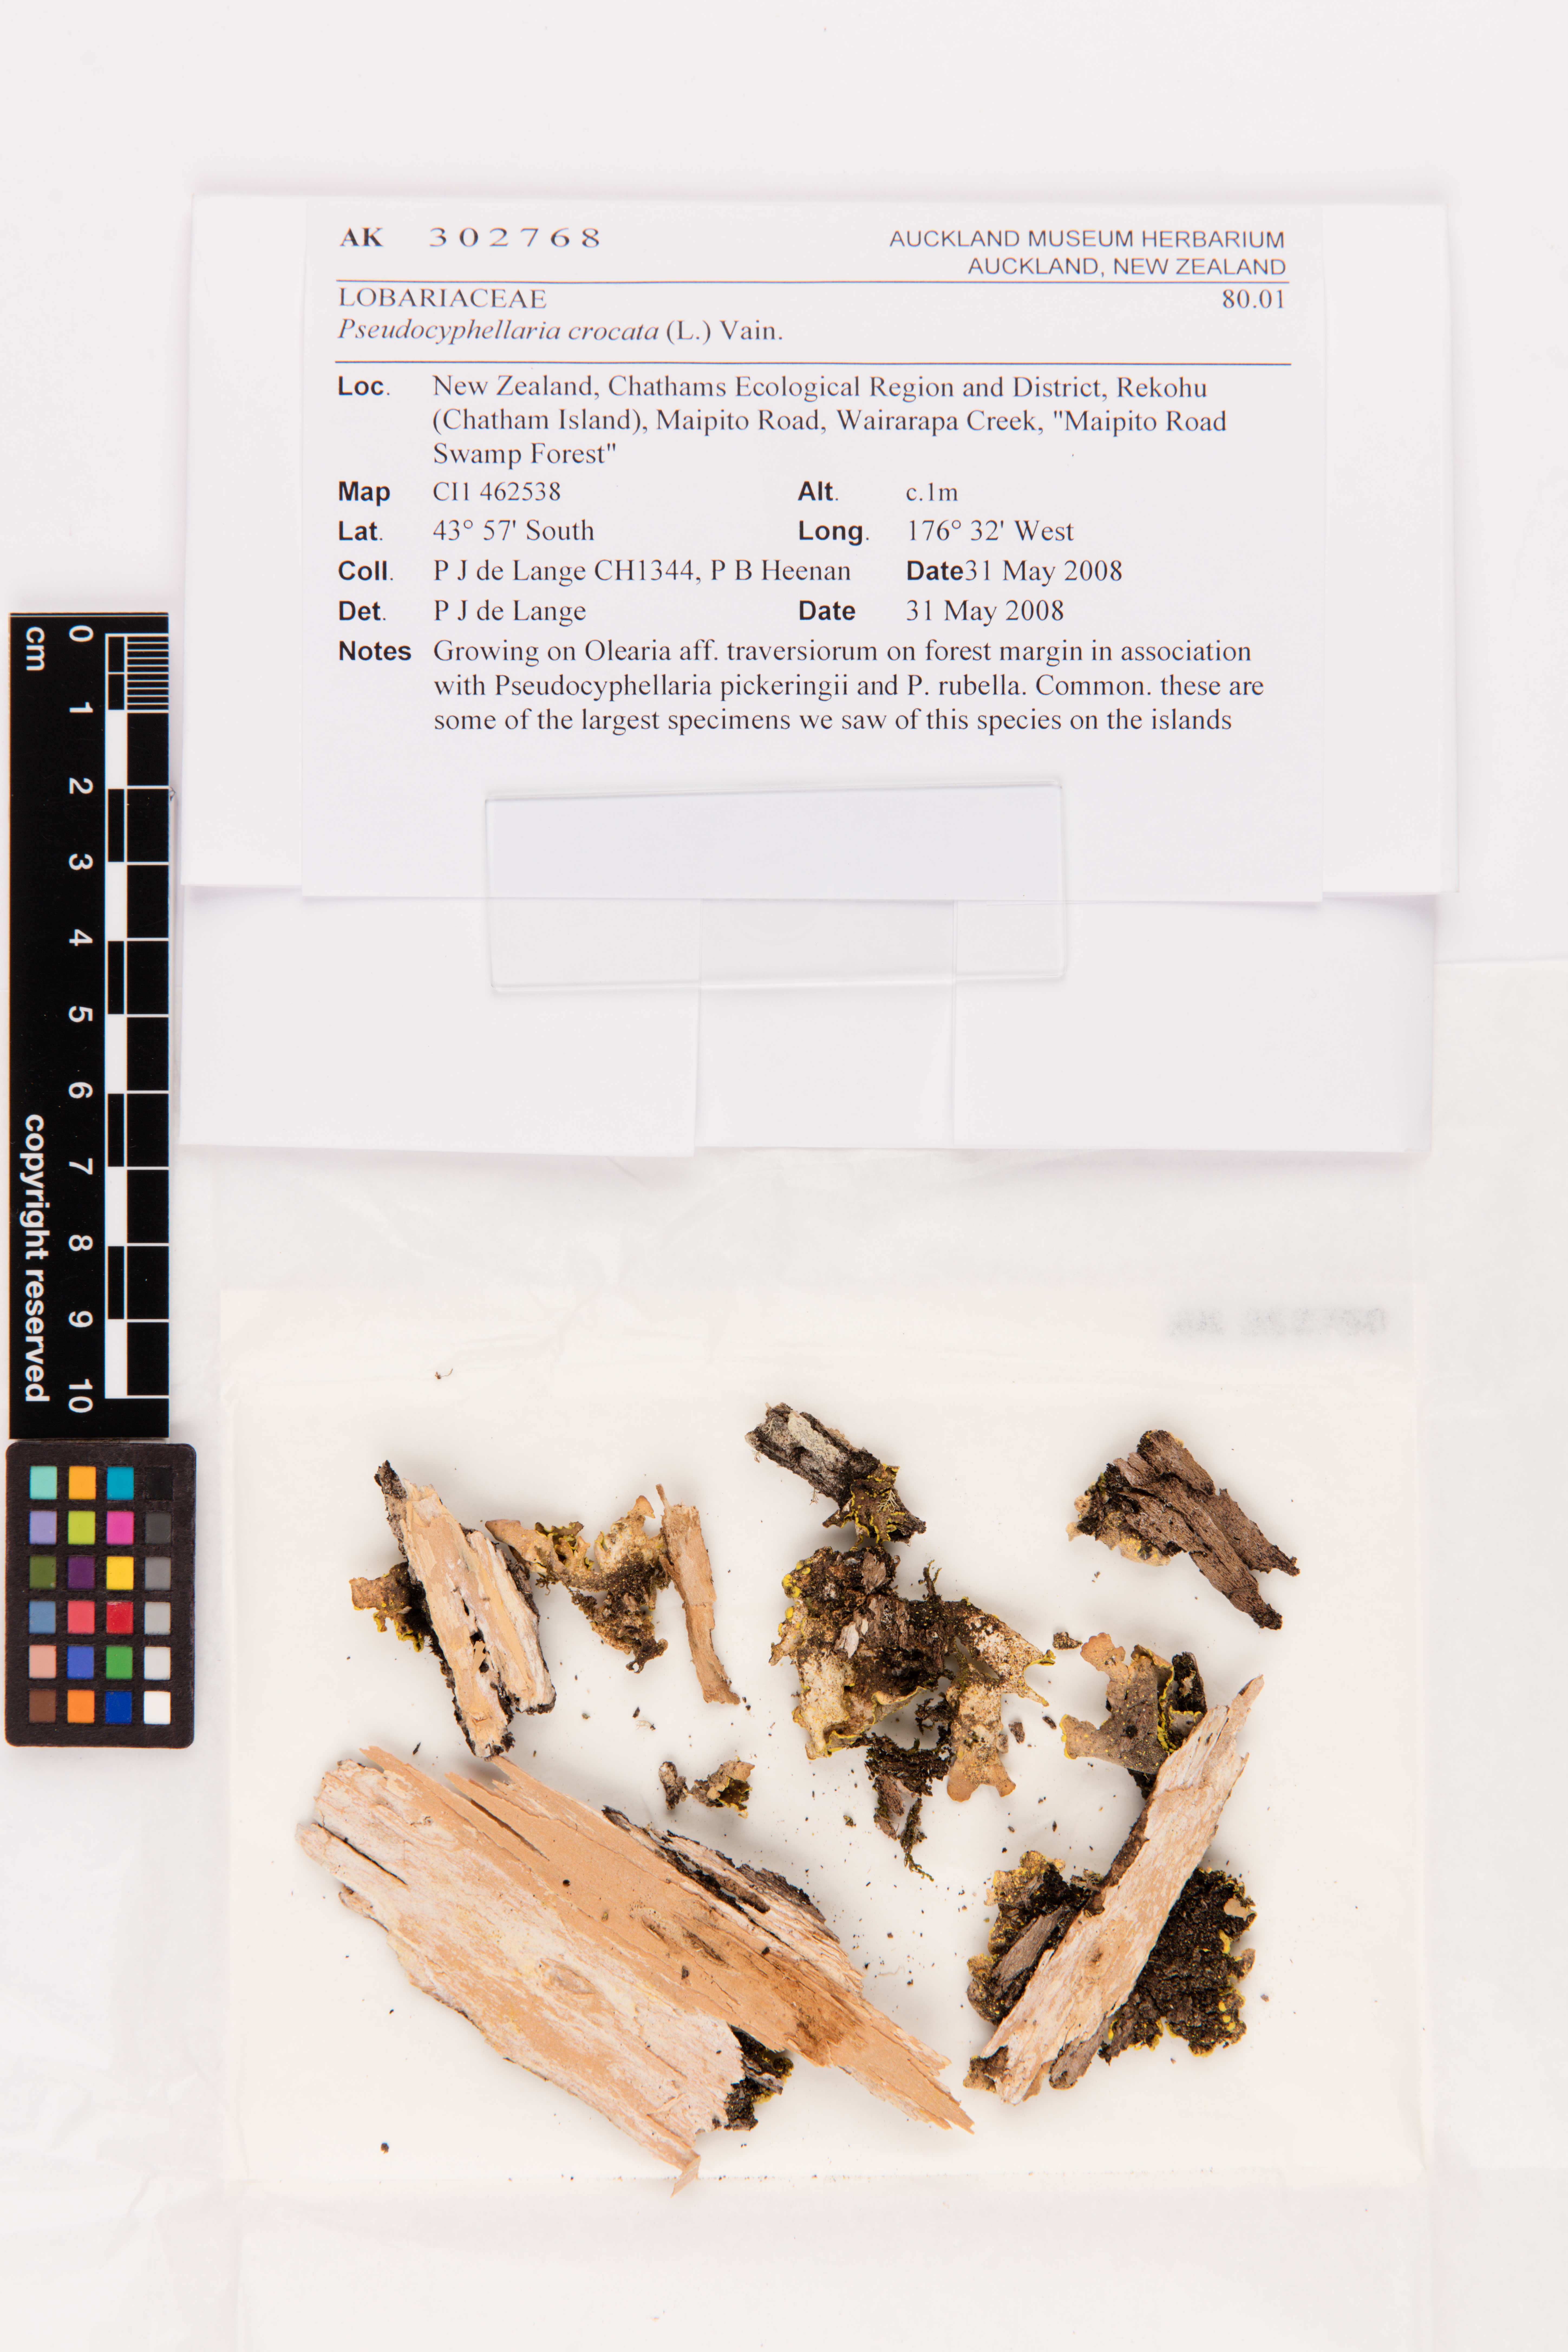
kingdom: Fungi
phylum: Ascomycota
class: Lecanoromycetes
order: Peltigerales
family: Lobariaceae
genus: Pseudocyphellaria
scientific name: Pseudocyphellaria crocata
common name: Golden specklebelly
